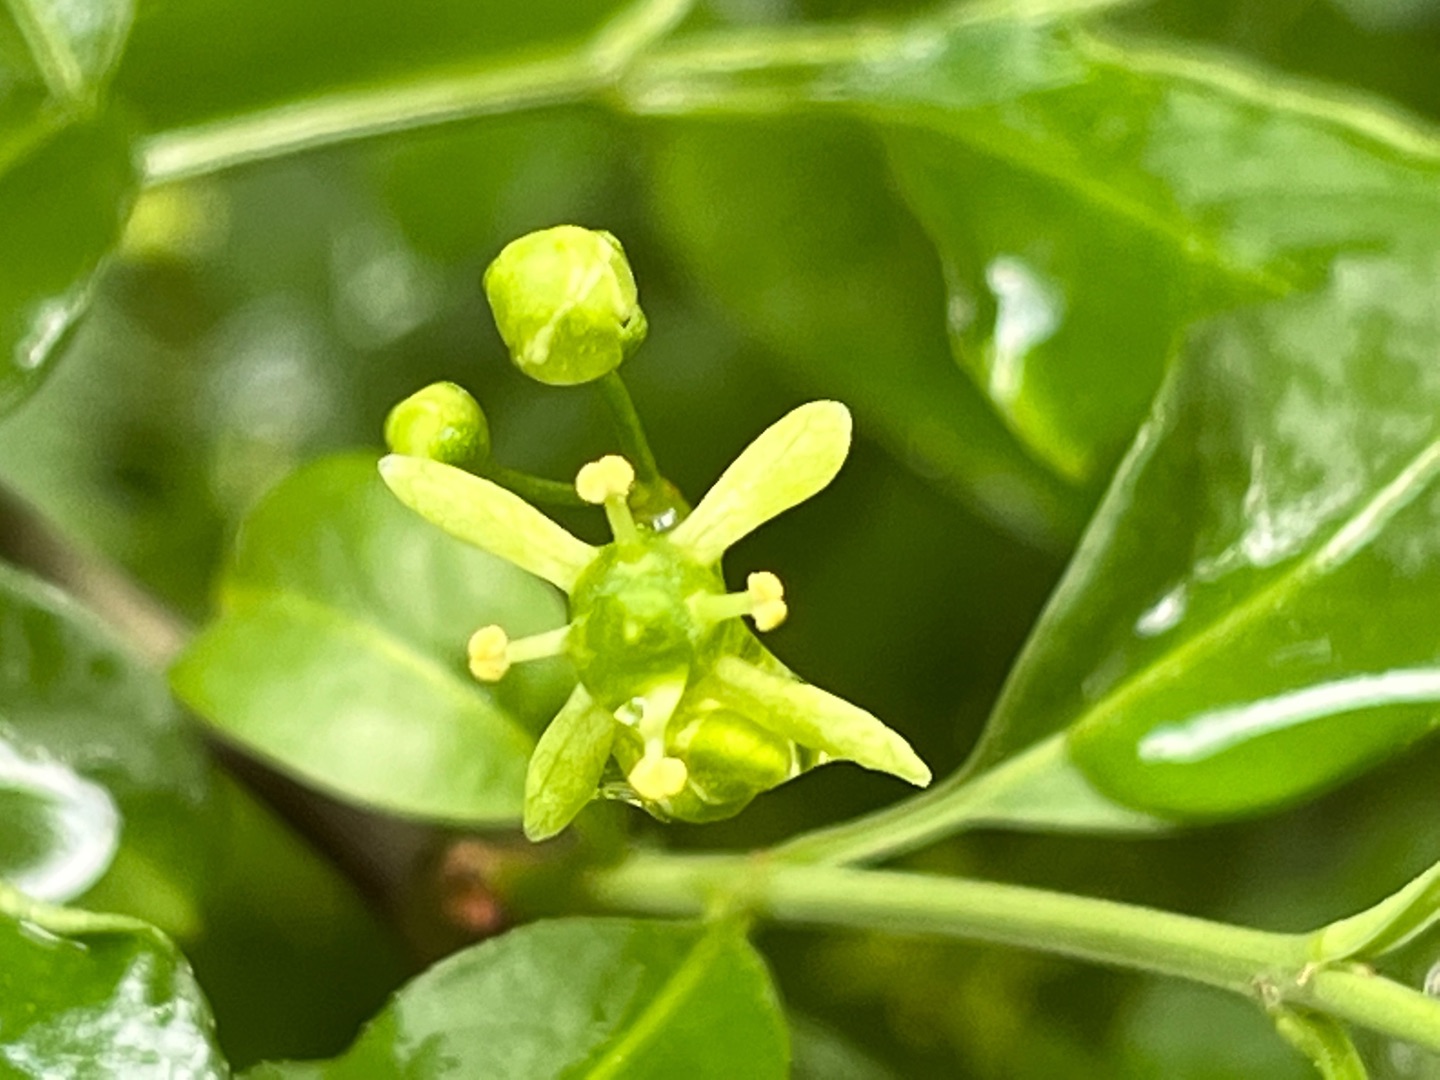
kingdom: Animalia
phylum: Arthropoda
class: Insecta
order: Diptera
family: Cecidomyiidae
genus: Contarinia
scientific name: Contarinia
